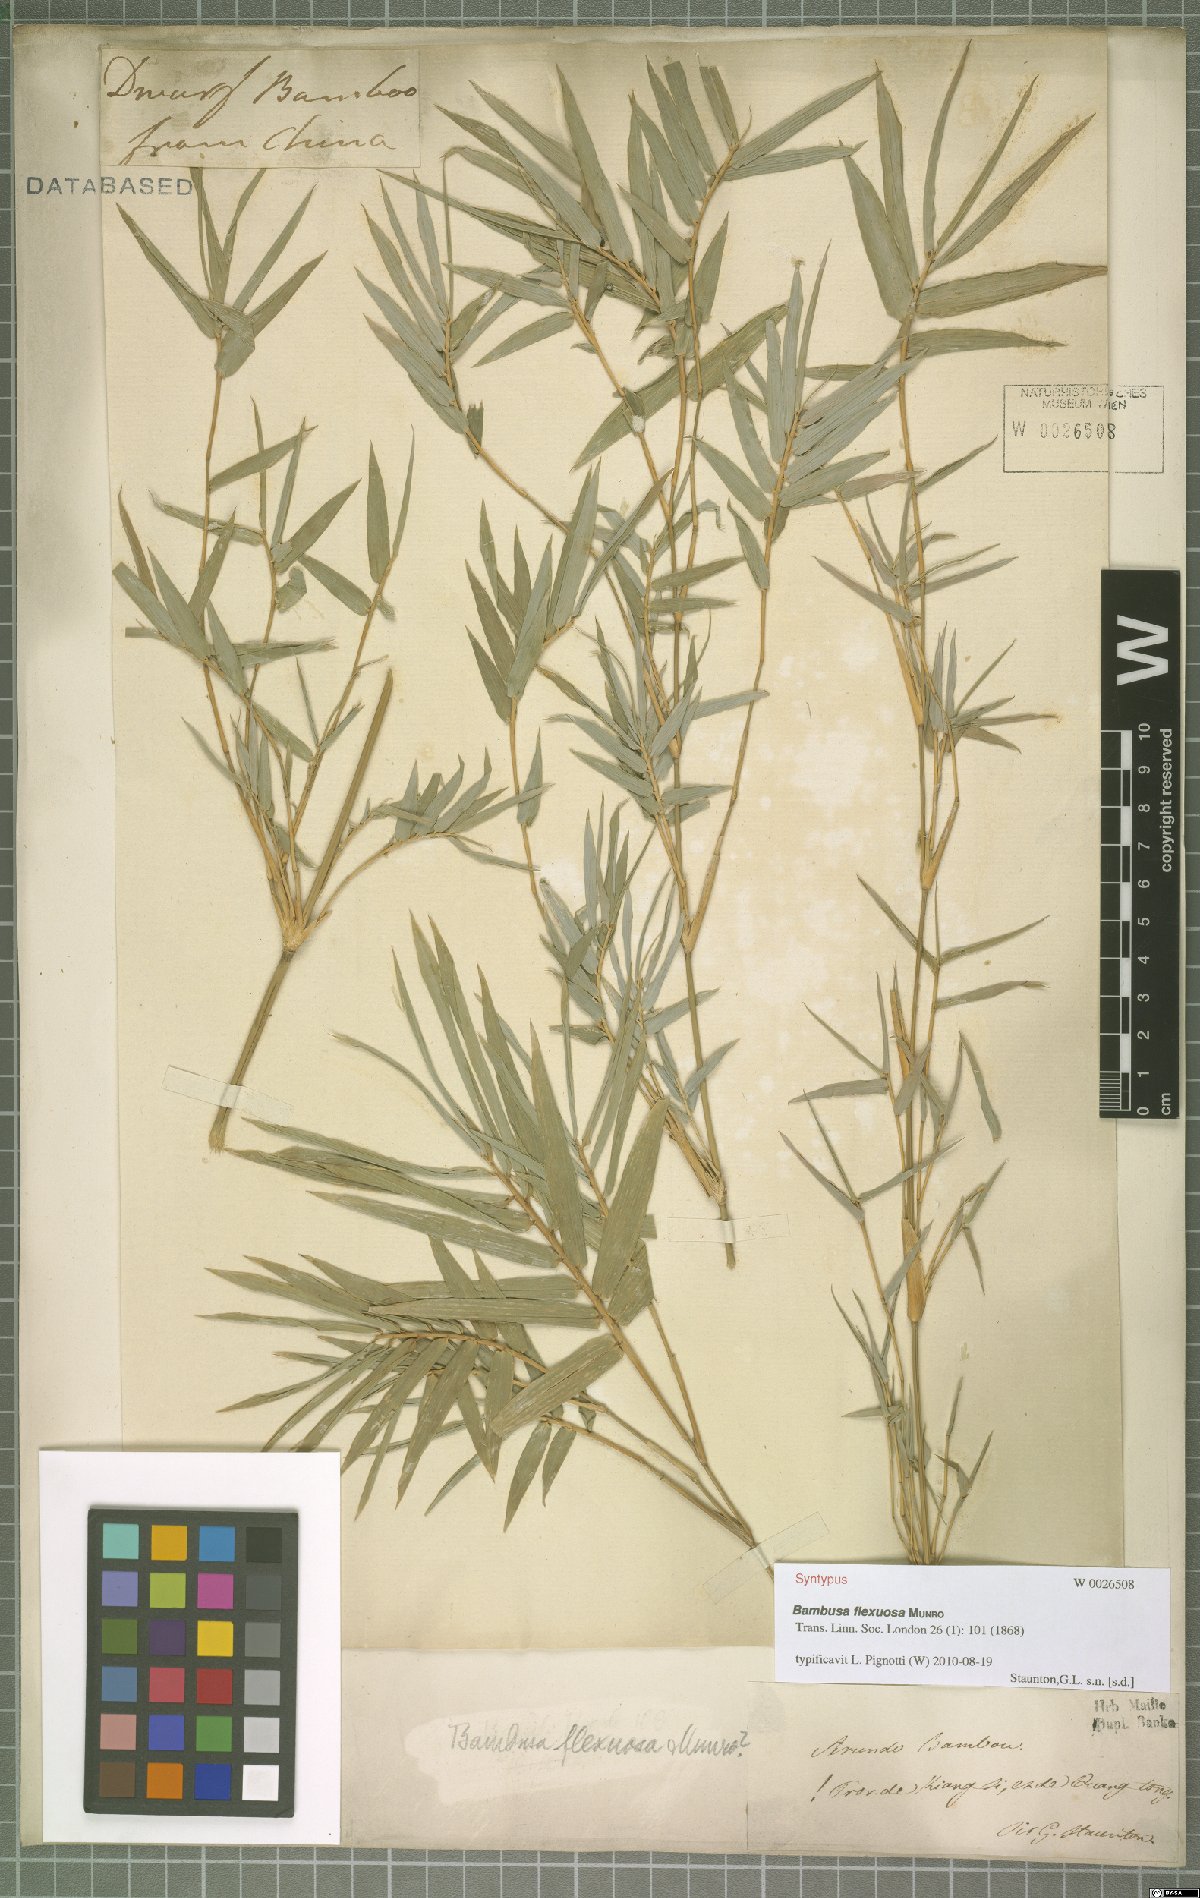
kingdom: Plantae
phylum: Tracheophyta
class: Liliopsida
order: Poales
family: Poaceae
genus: Bambusa
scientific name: Bambusa flexuosa
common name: Lesser thorny bamboo
